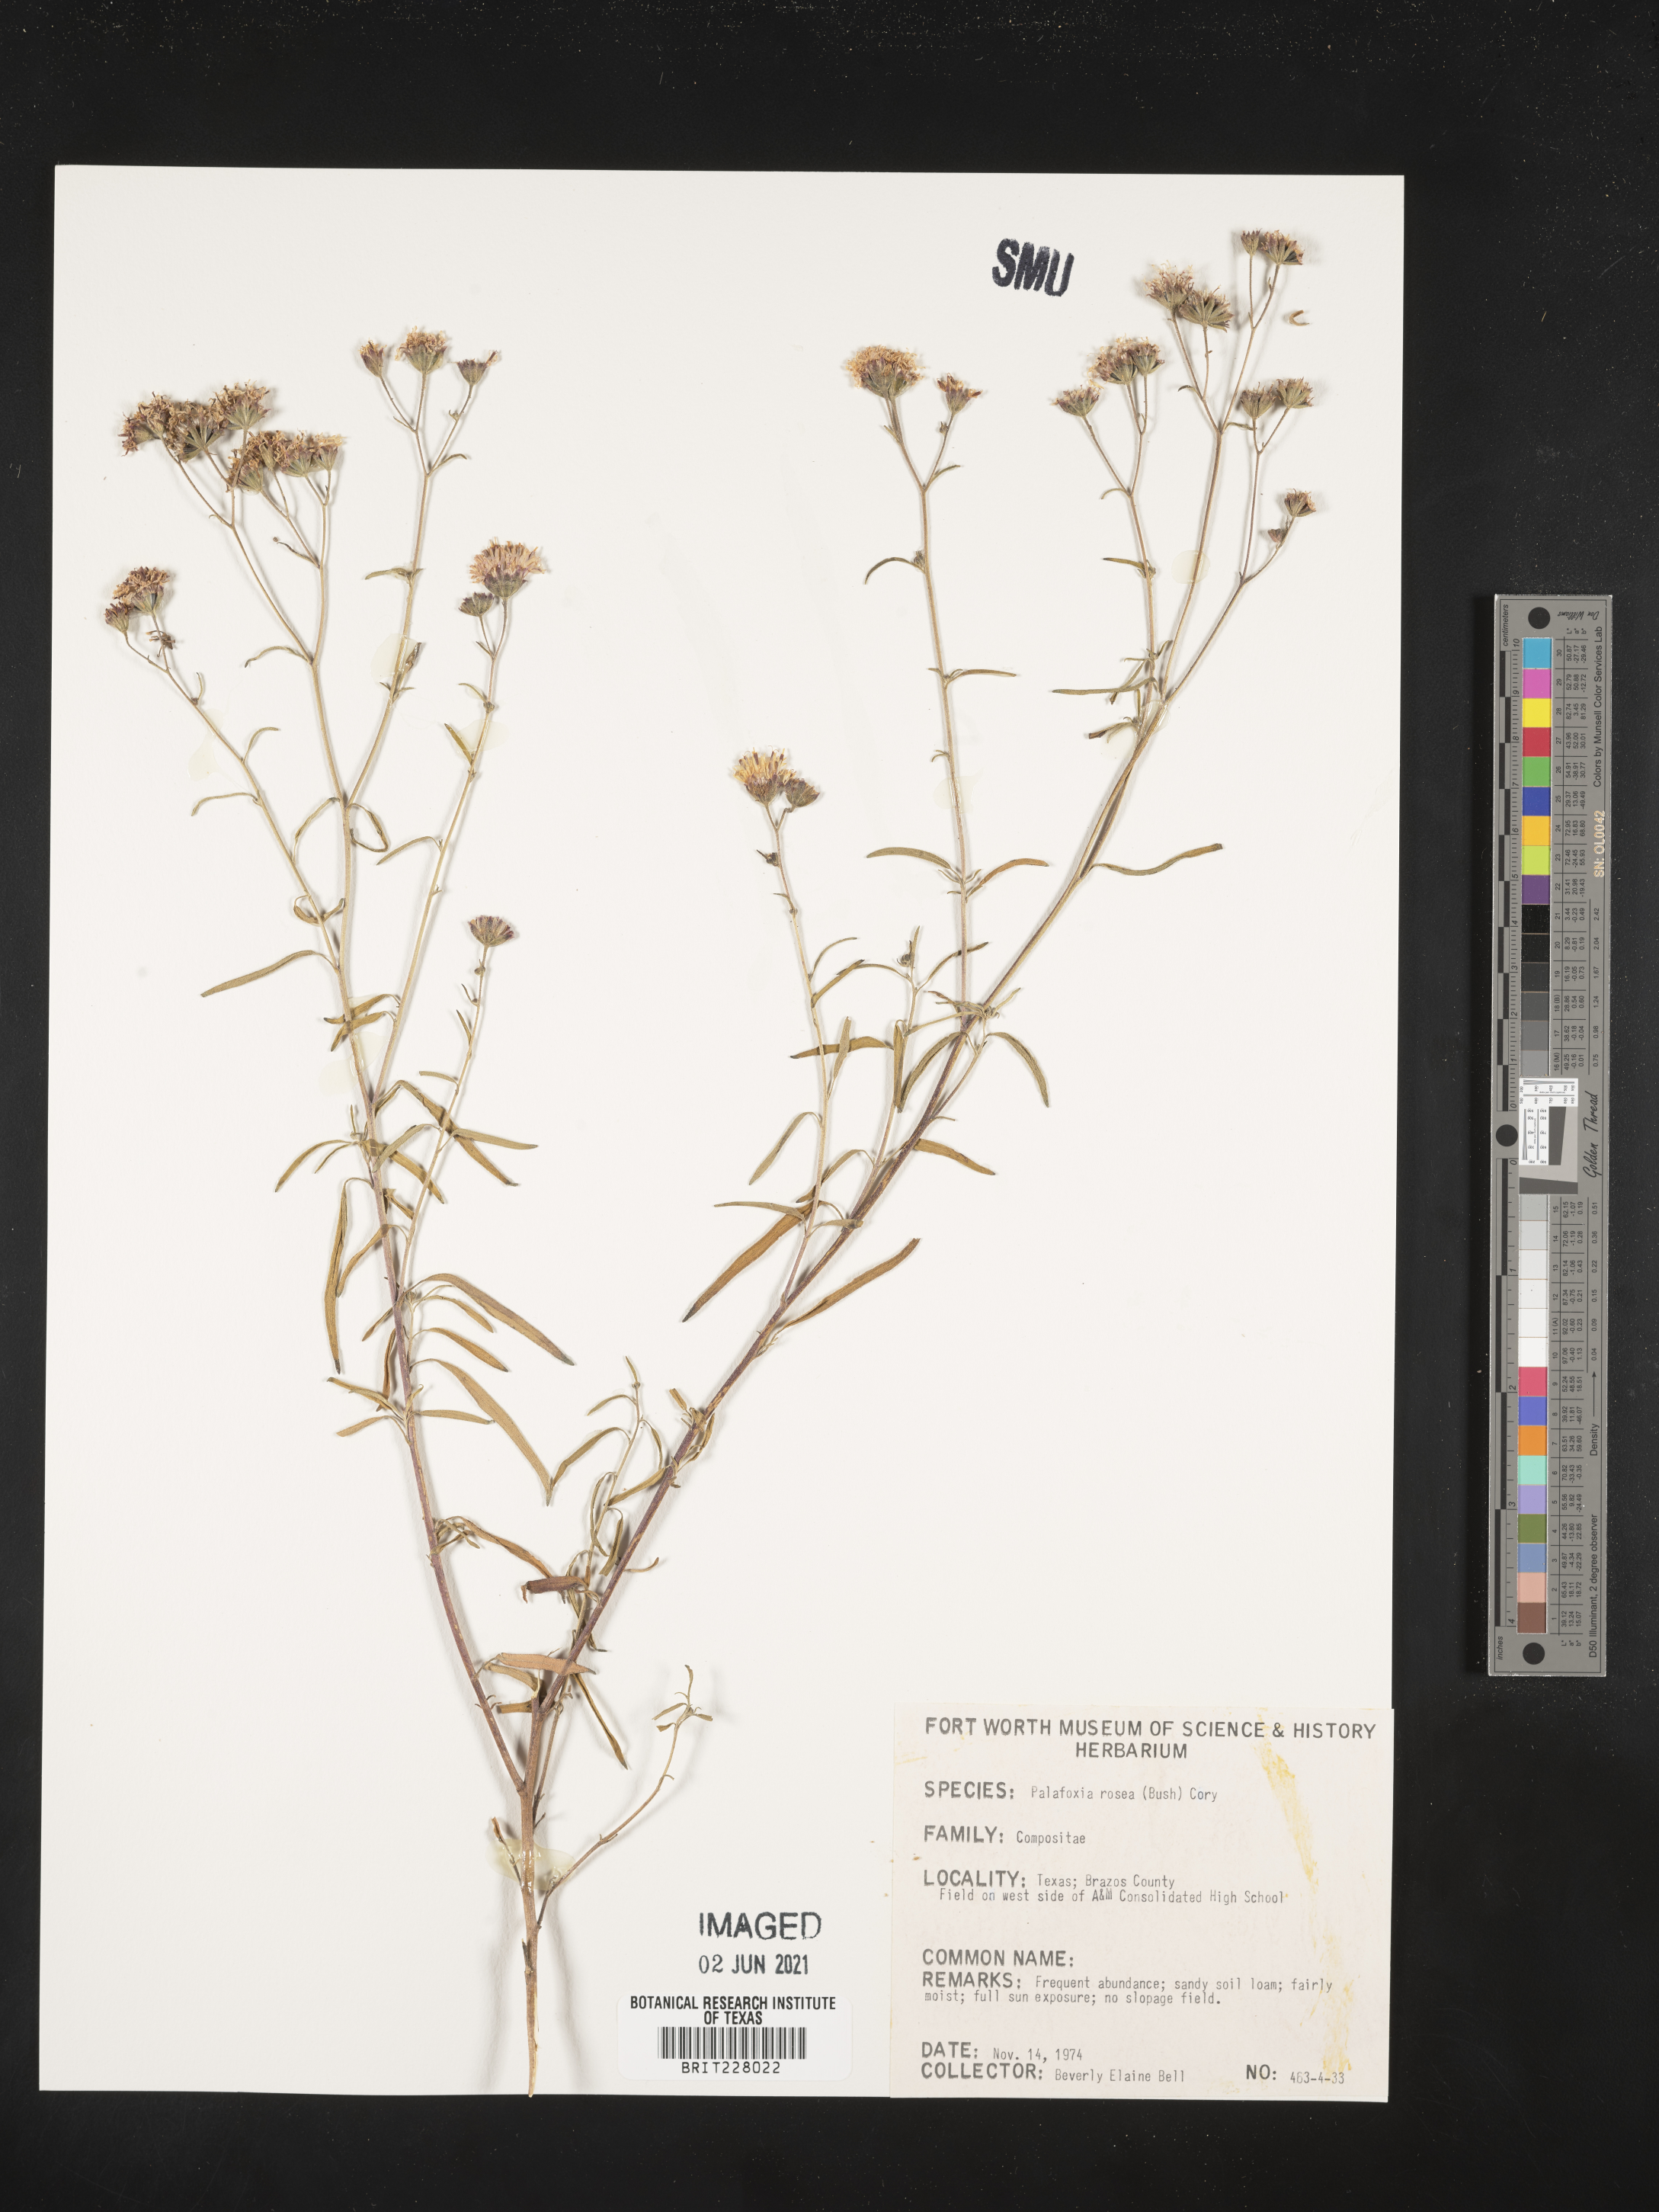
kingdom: Plantae
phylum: Tracheophyta
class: Magnoliopsida
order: Asterales
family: Asteraceae
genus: Palafoxia
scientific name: Palafoxia rosea
